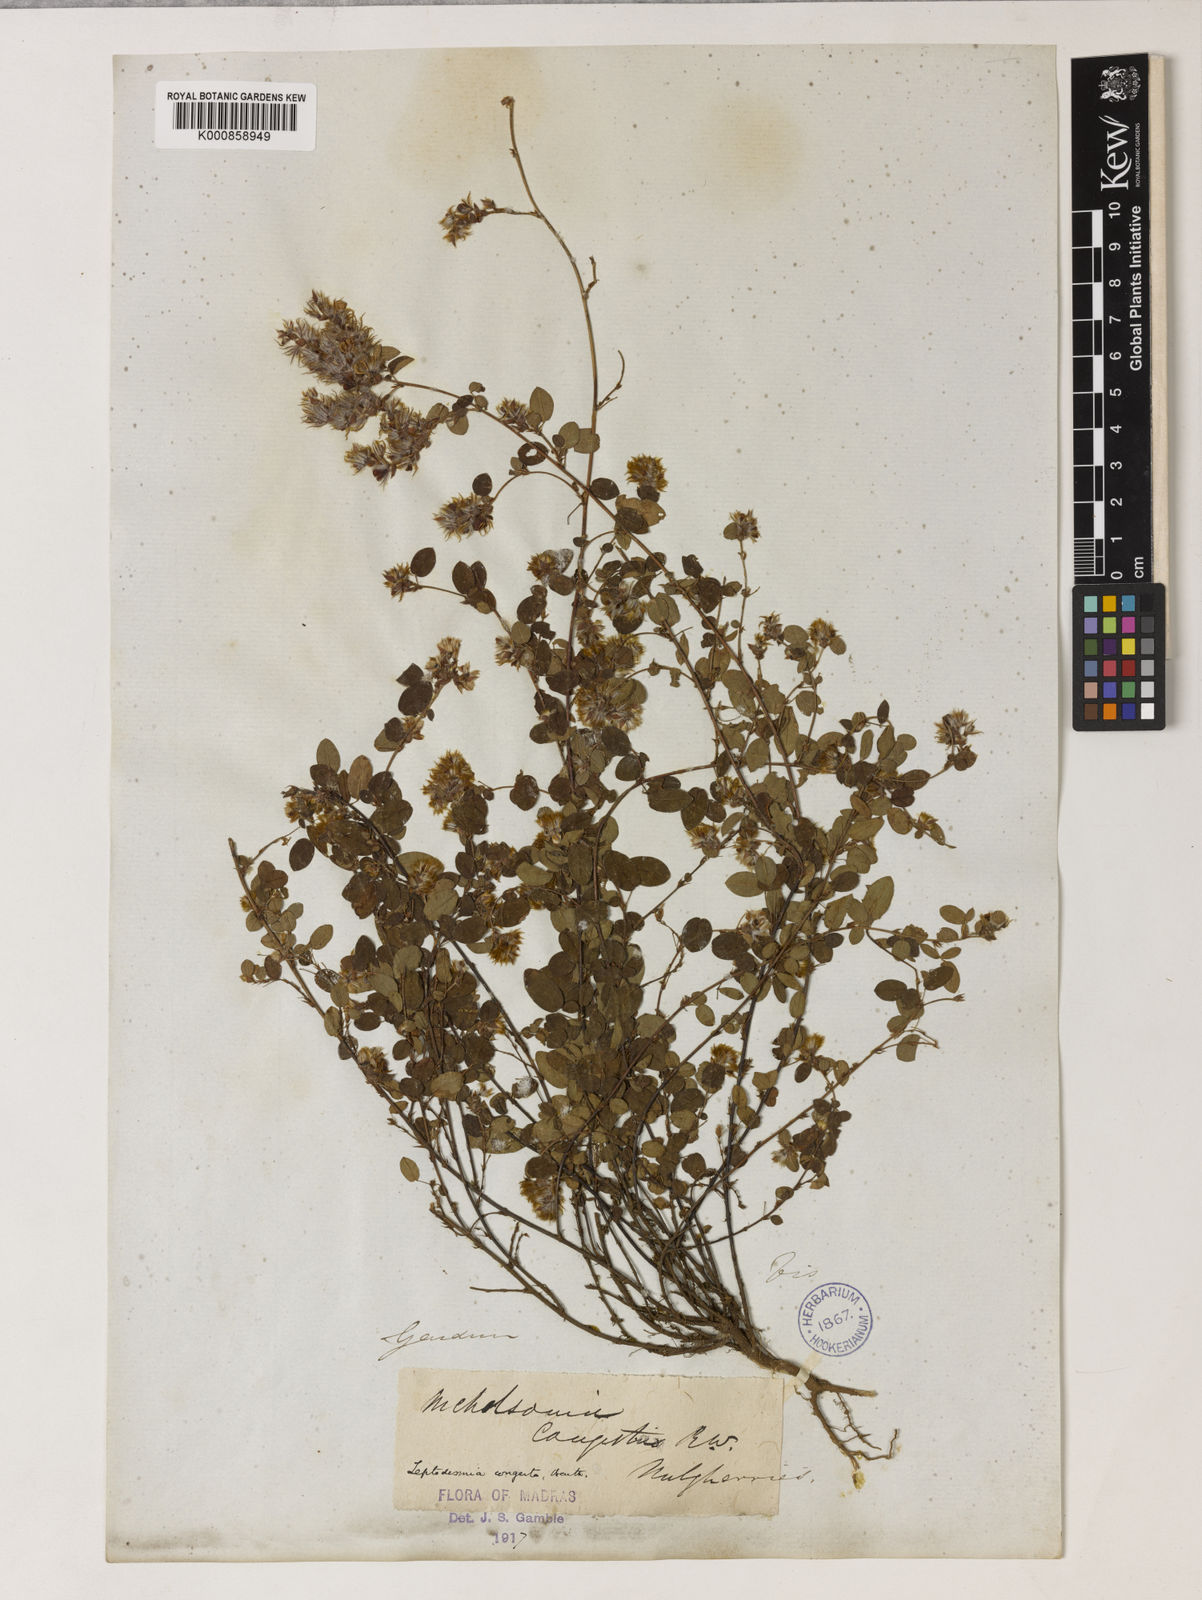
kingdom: Plantae
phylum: Tracheophyta
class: Magnoliopsida
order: Fabales
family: Fabaceae
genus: Leptodesmia
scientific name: Leptodesmia
